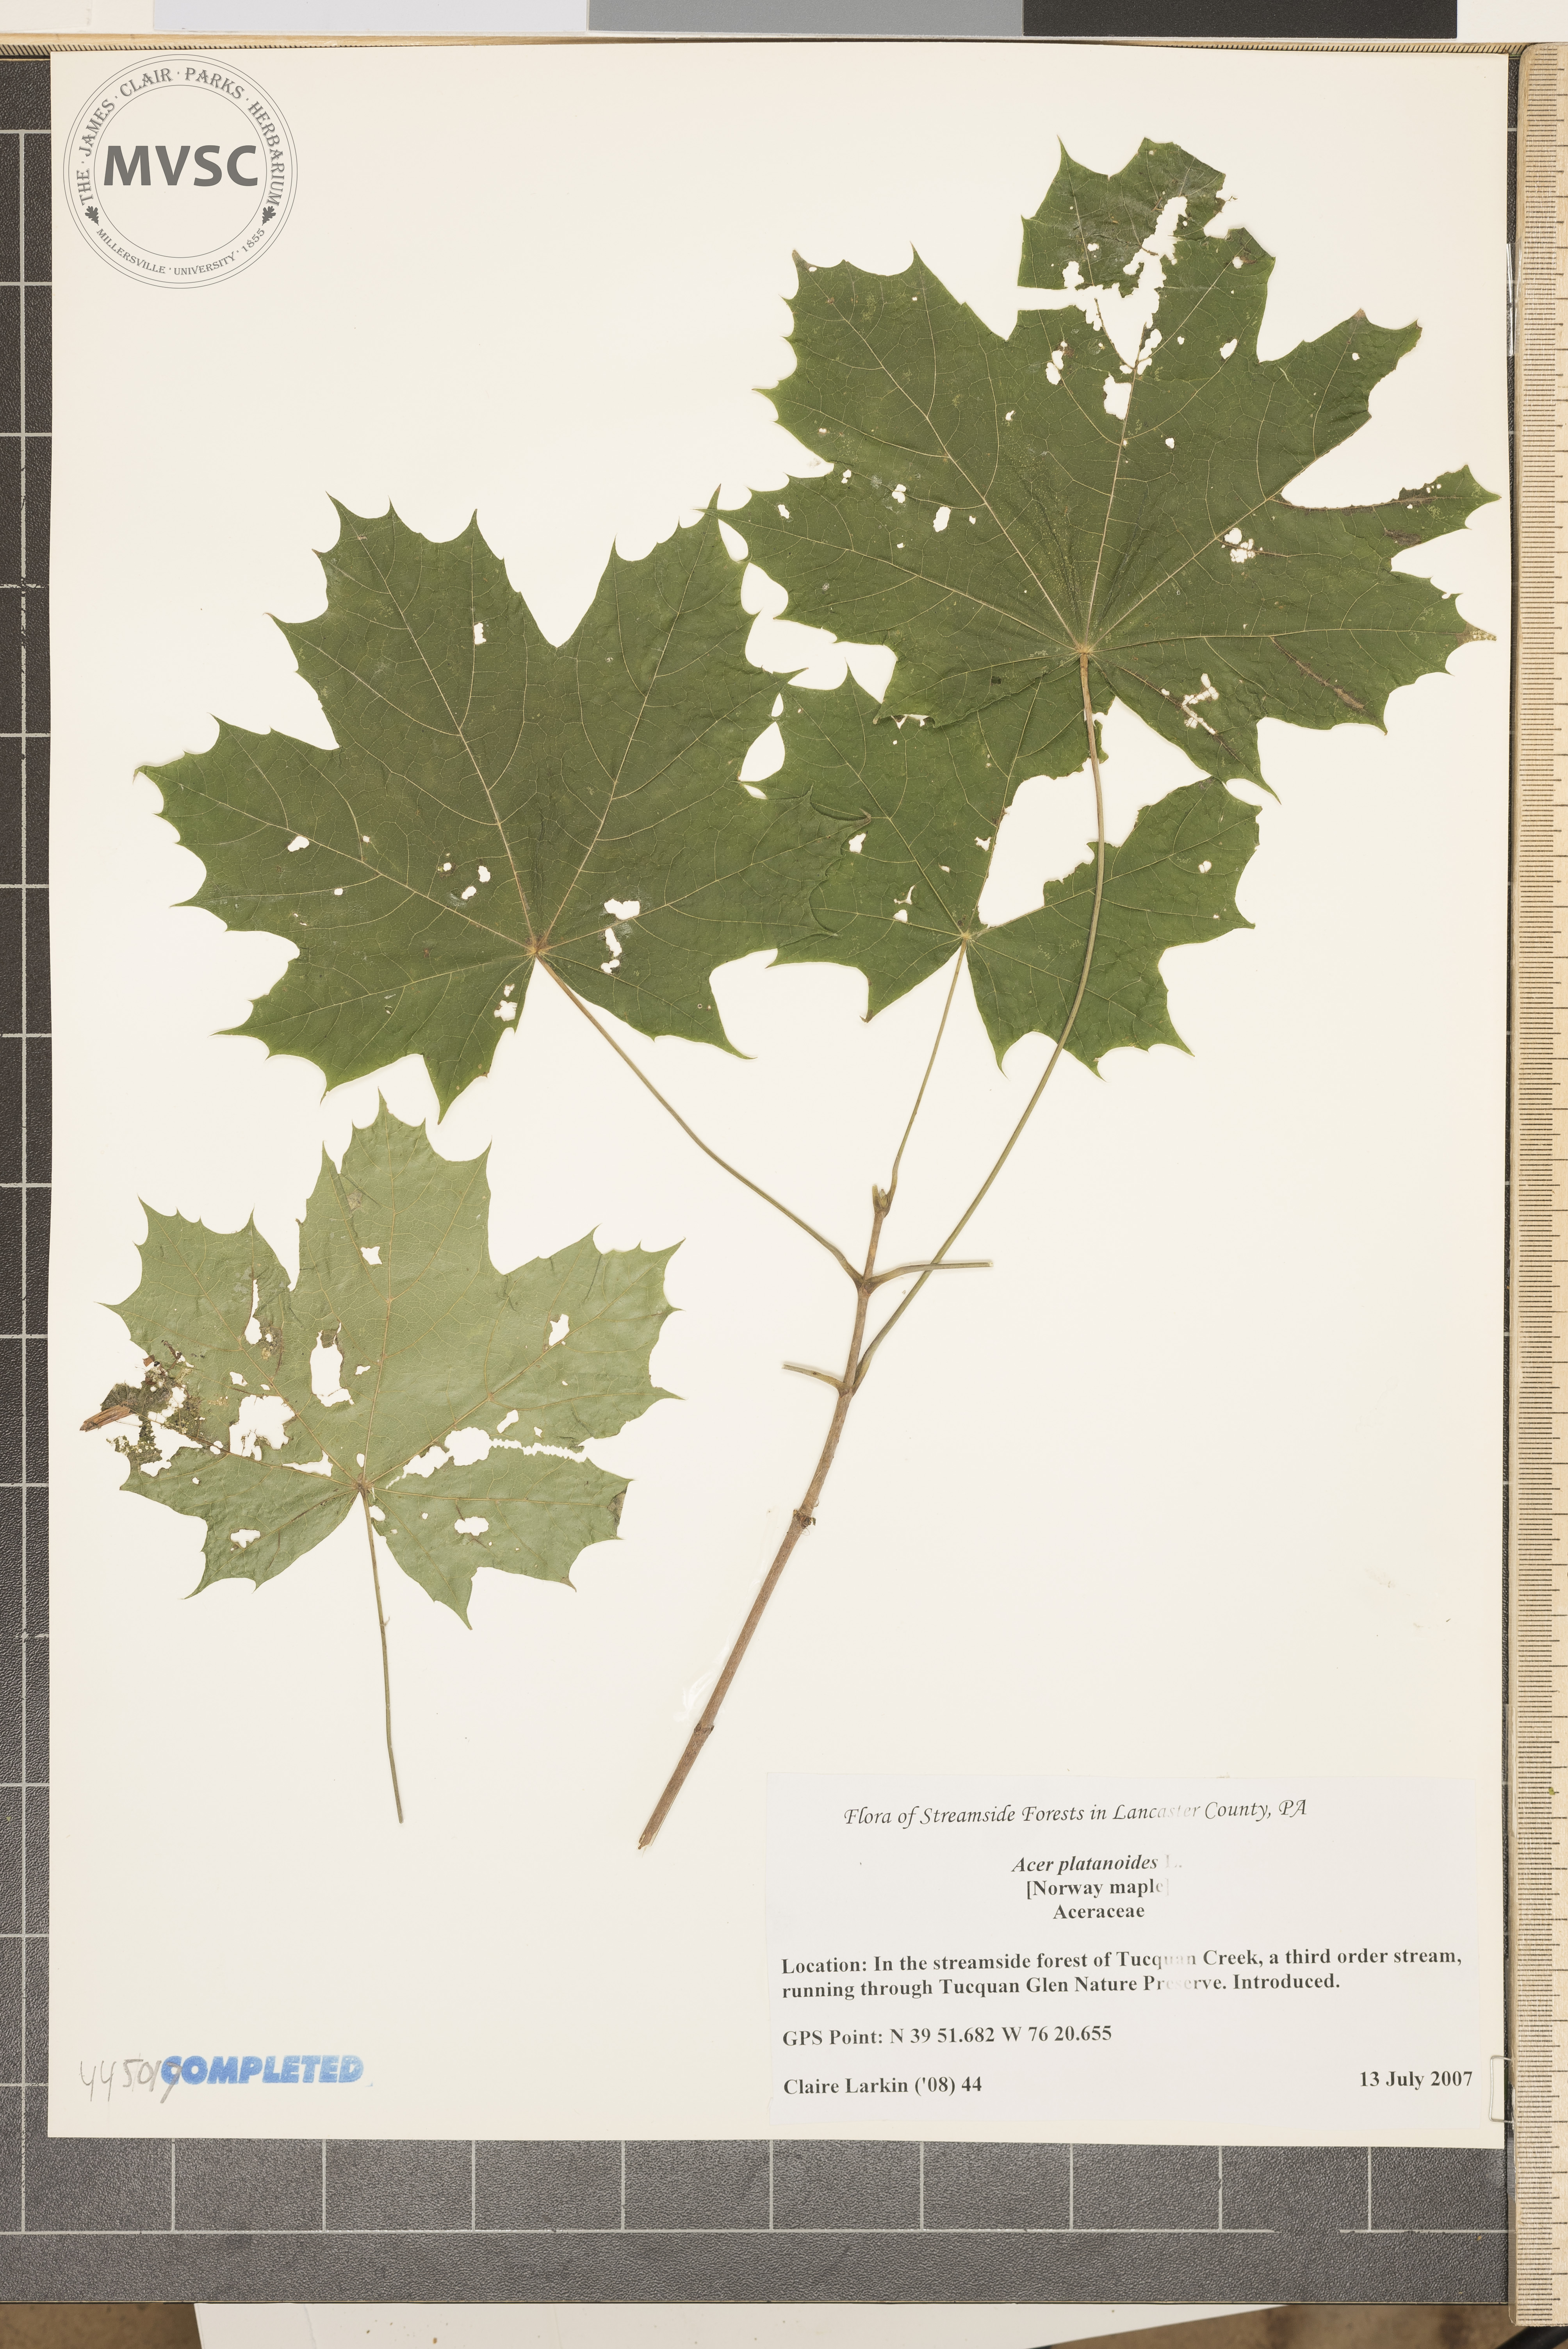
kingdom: Plantae
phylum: Tracheophyta
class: Magnoliopsida
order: Sapindales
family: Sapindaceae
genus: Acer
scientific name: Acer platanoides
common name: Norway maple
